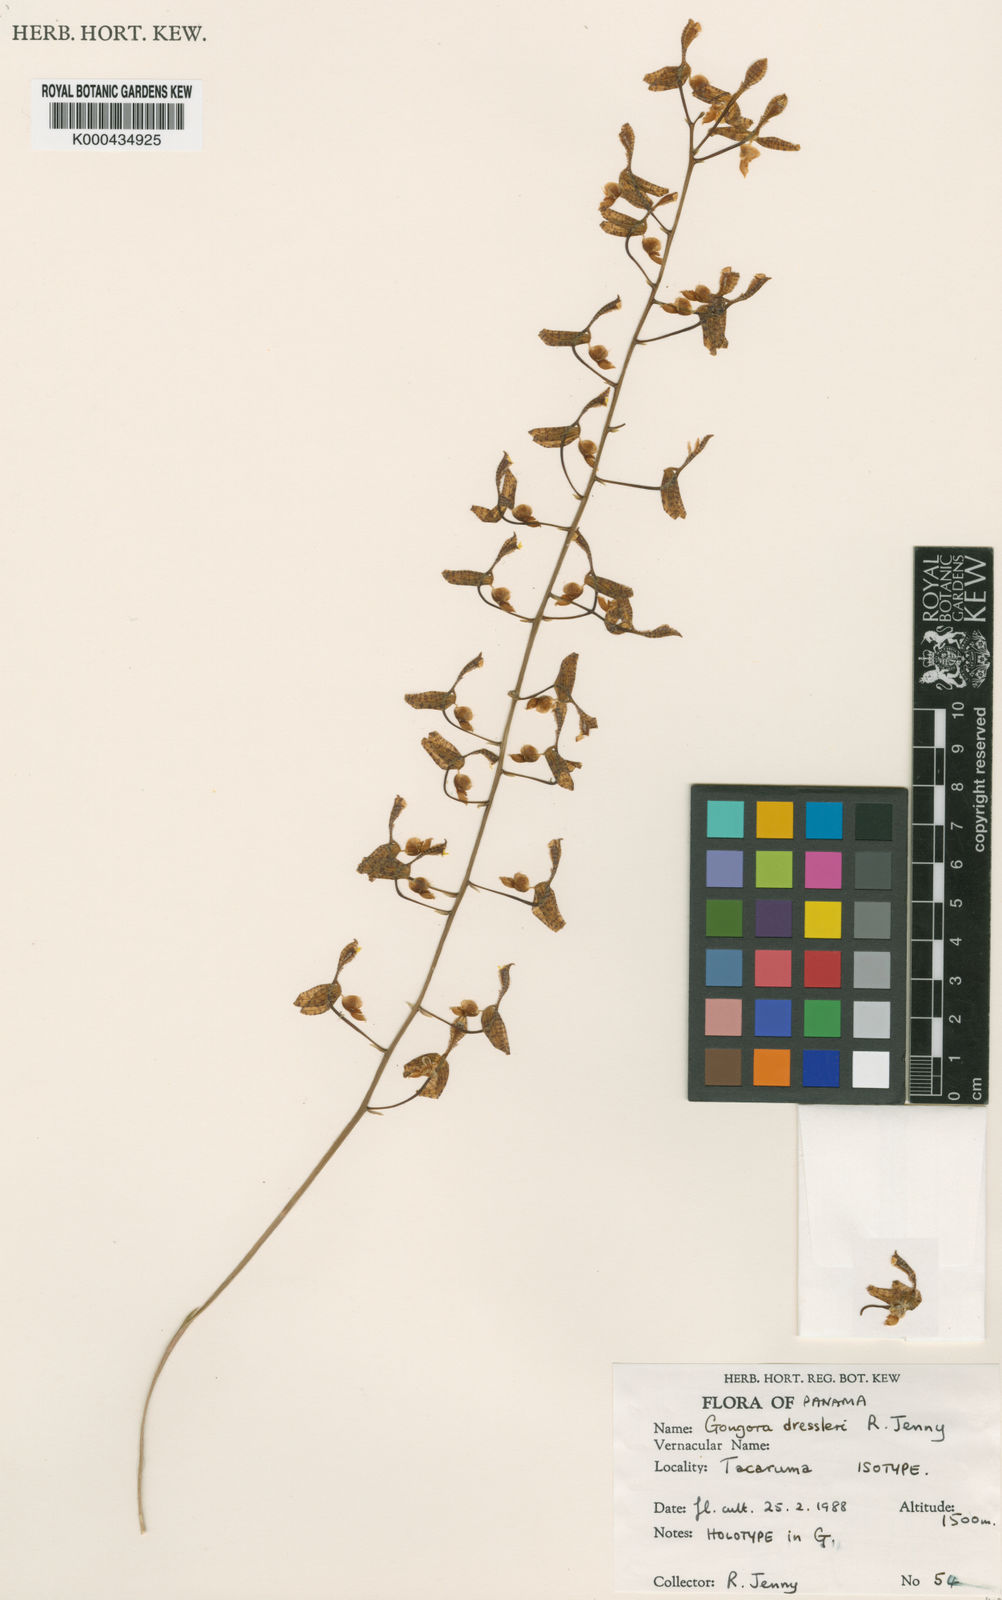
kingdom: Plantae
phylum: Tracheophyta
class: Liliopsida
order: Asparagales
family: Orchidaceae
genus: Gongora
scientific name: Gongora tracyana
